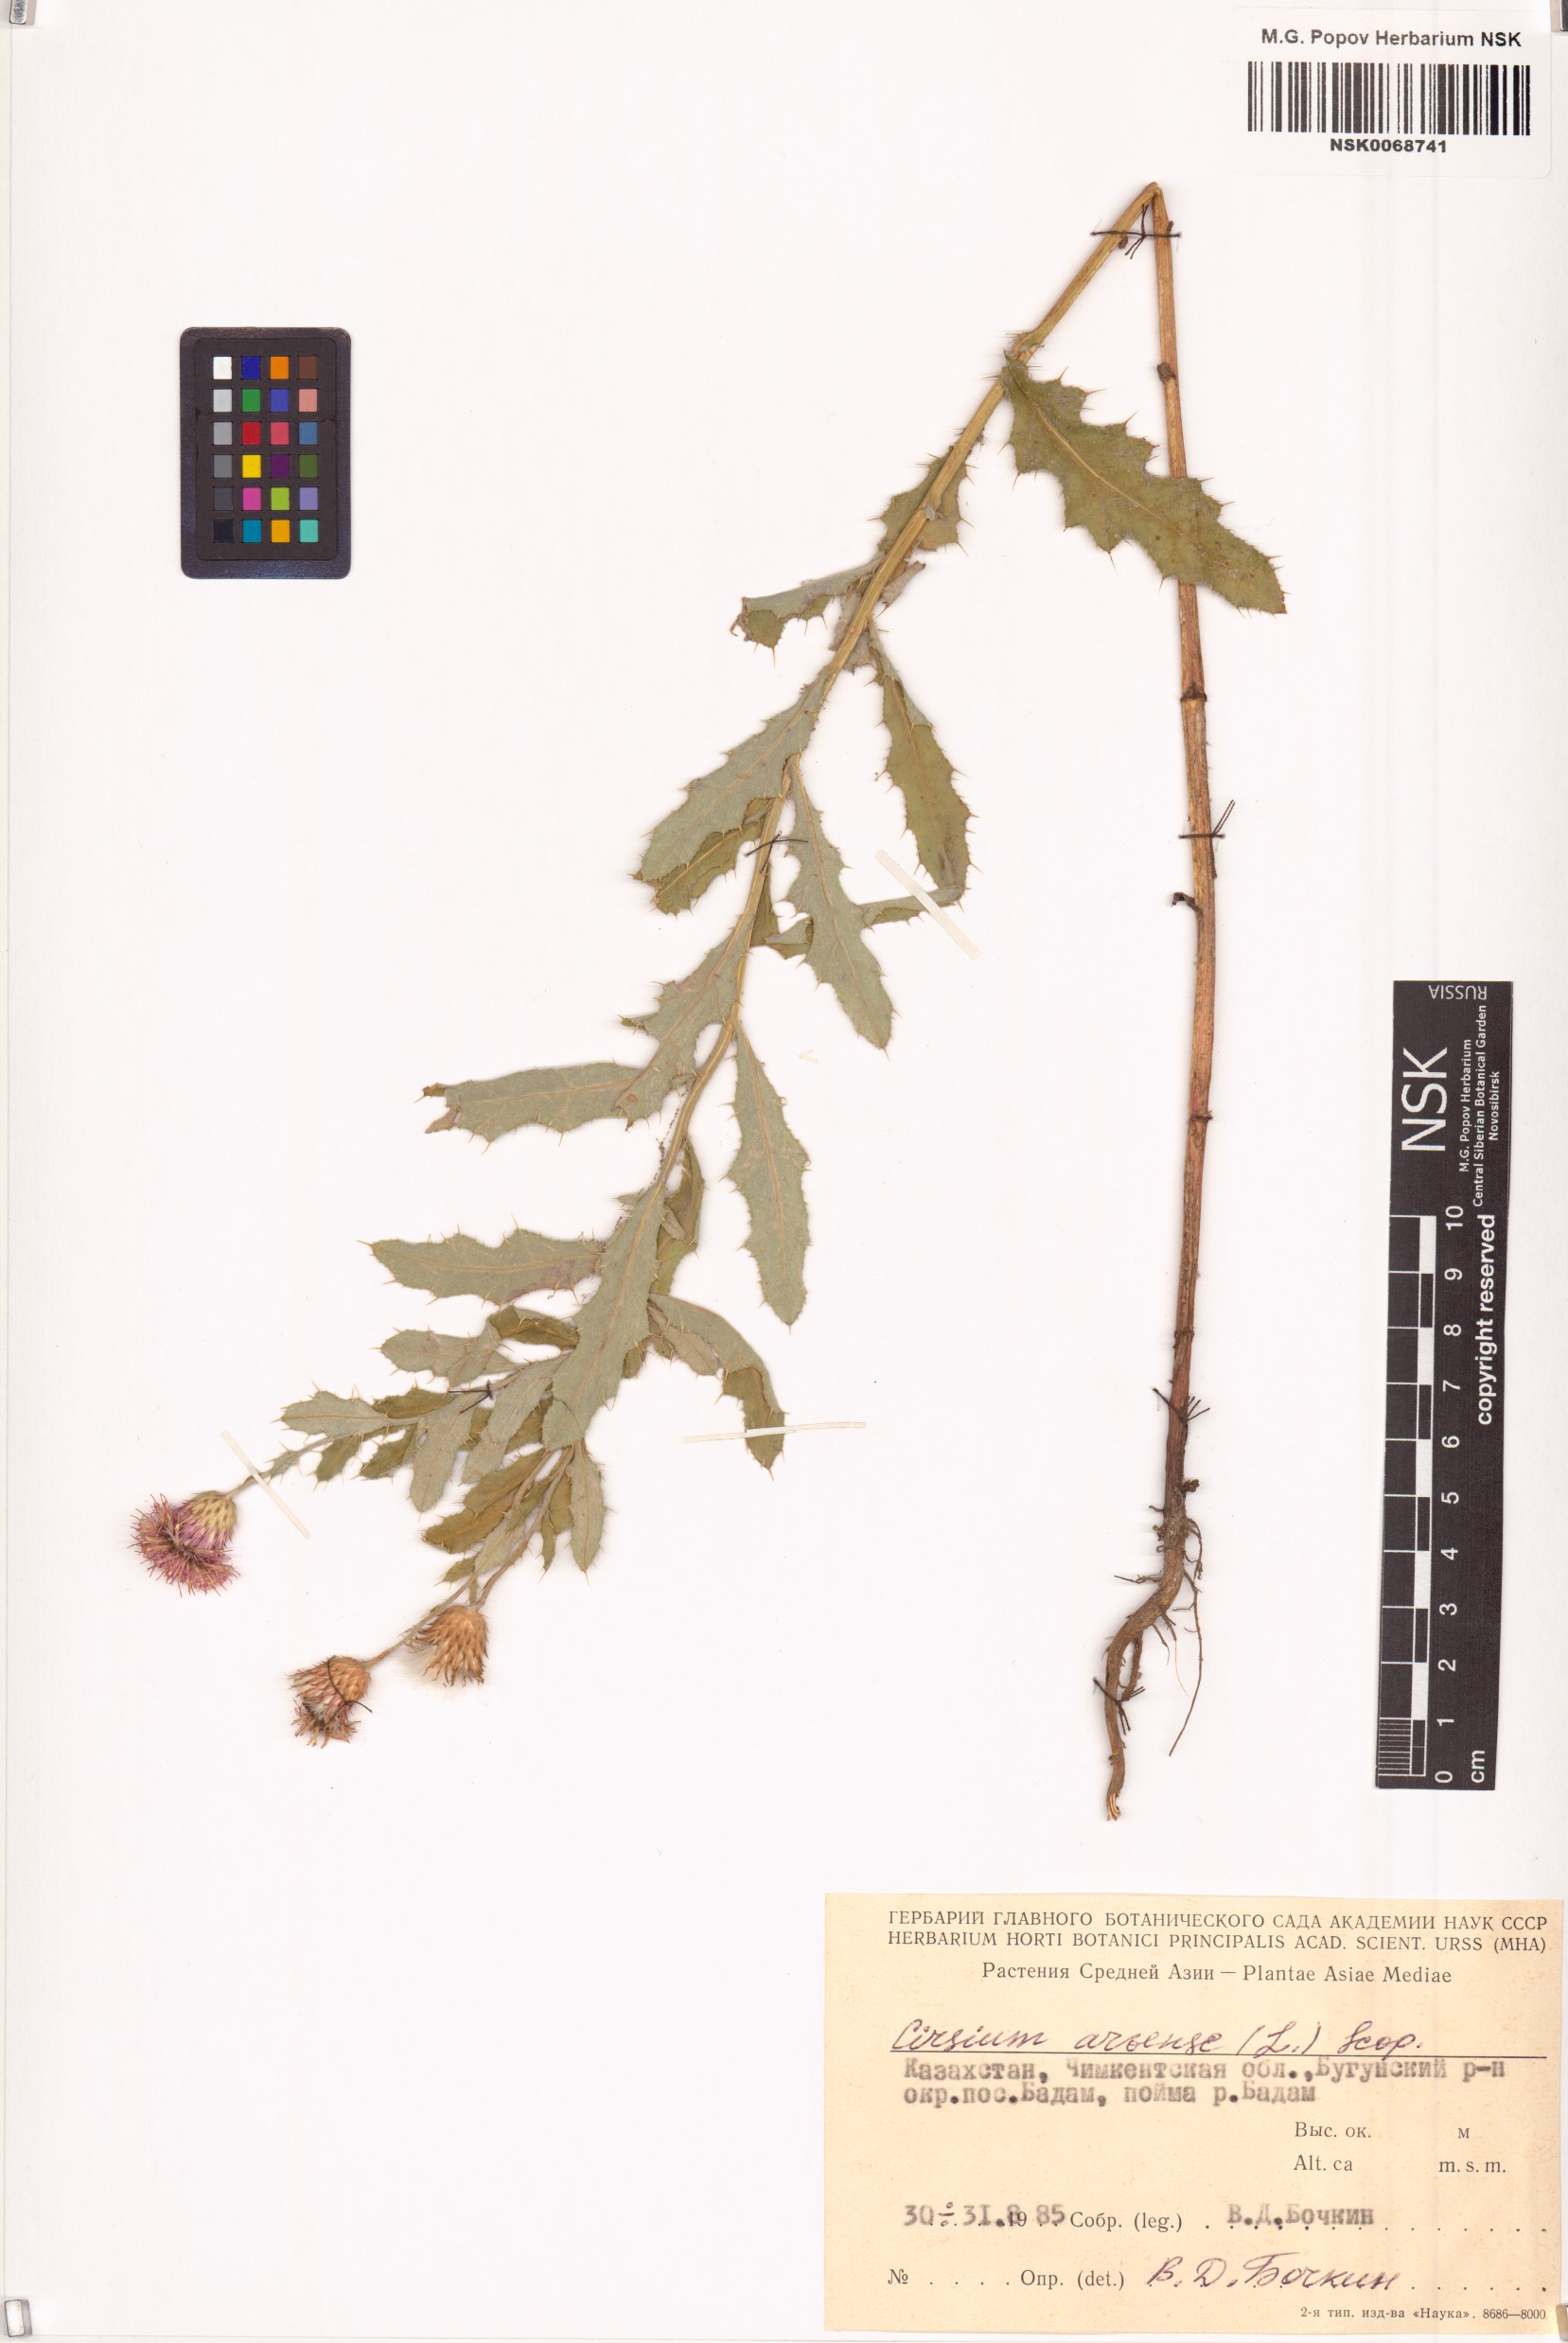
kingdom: Plantae
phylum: Tracheophyta
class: Magnoliopsida
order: Asterales
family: Asteraceae
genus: Cirsium
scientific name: Cirsium arvense
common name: Creeping thistle
